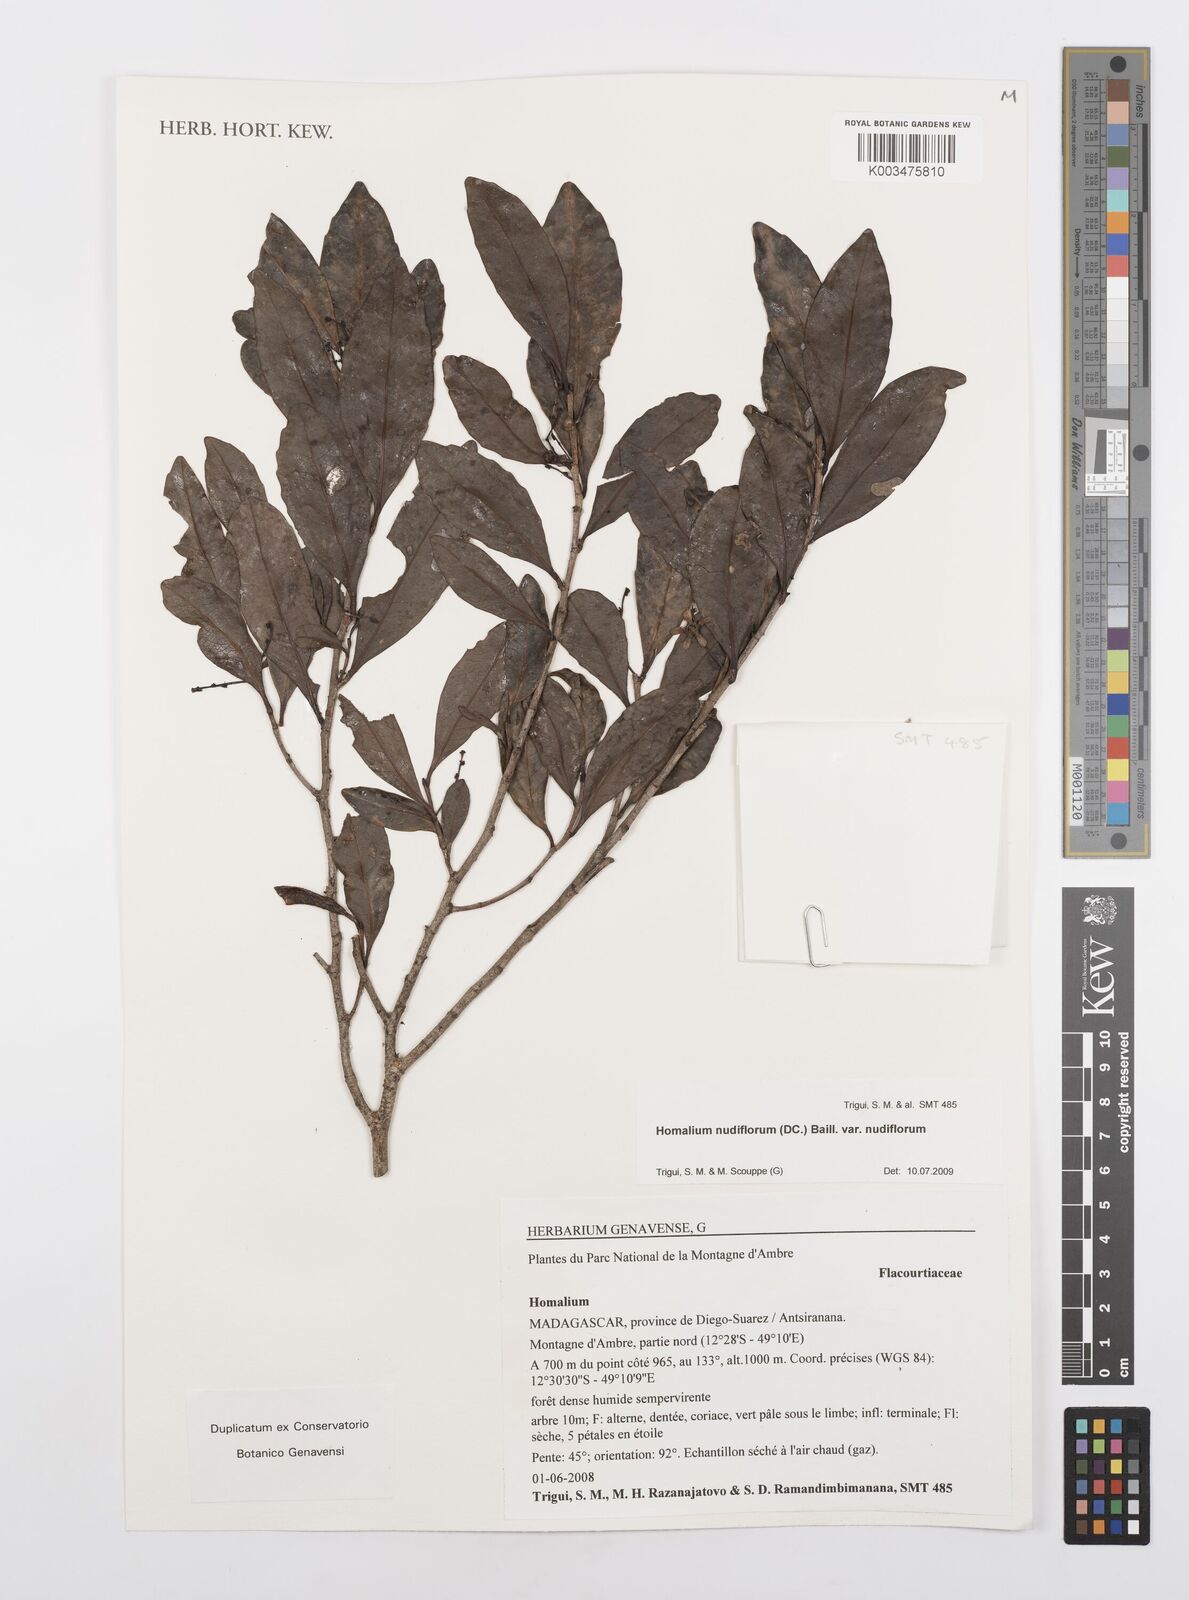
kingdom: Plantae
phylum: Tracheophyta
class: Magnoliopsida
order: Malpighiales
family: Salicaceae
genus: Homalium
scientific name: Homalium nudiflorum
